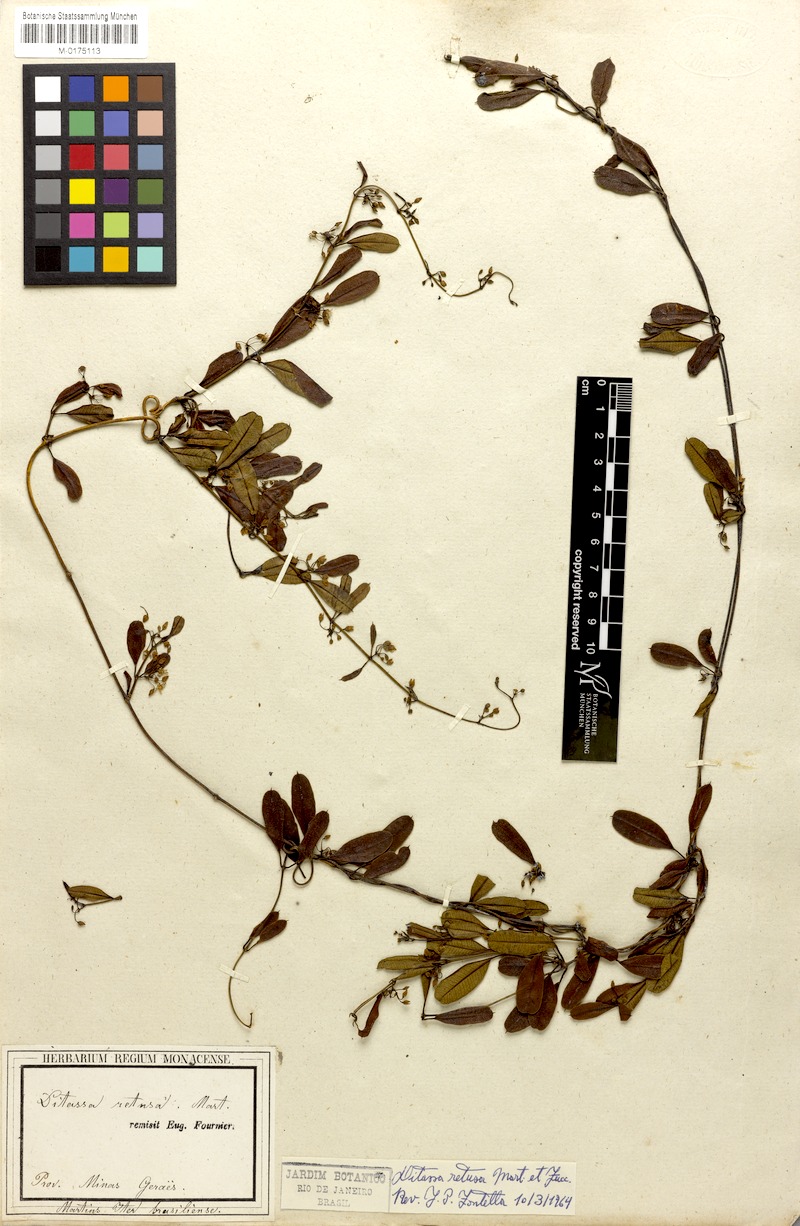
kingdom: Plantae
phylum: Tracheophyta
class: Magnoliopsida
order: Gentianales
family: Apocynaceae
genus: Ditassa
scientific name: Ditassa retusa
